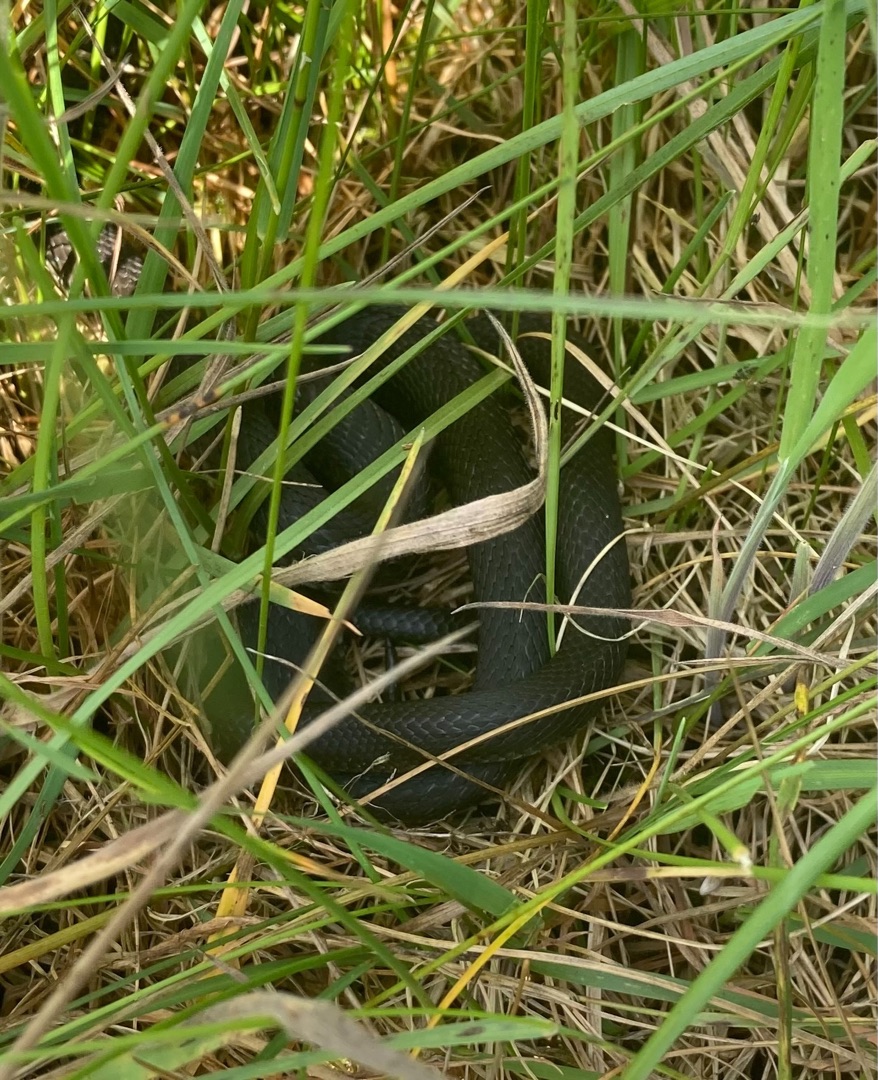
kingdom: Animalia
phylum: Chordata
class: Squamata
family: Colubridae
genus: Natrix
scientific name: Natrix natrix
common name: Snog
